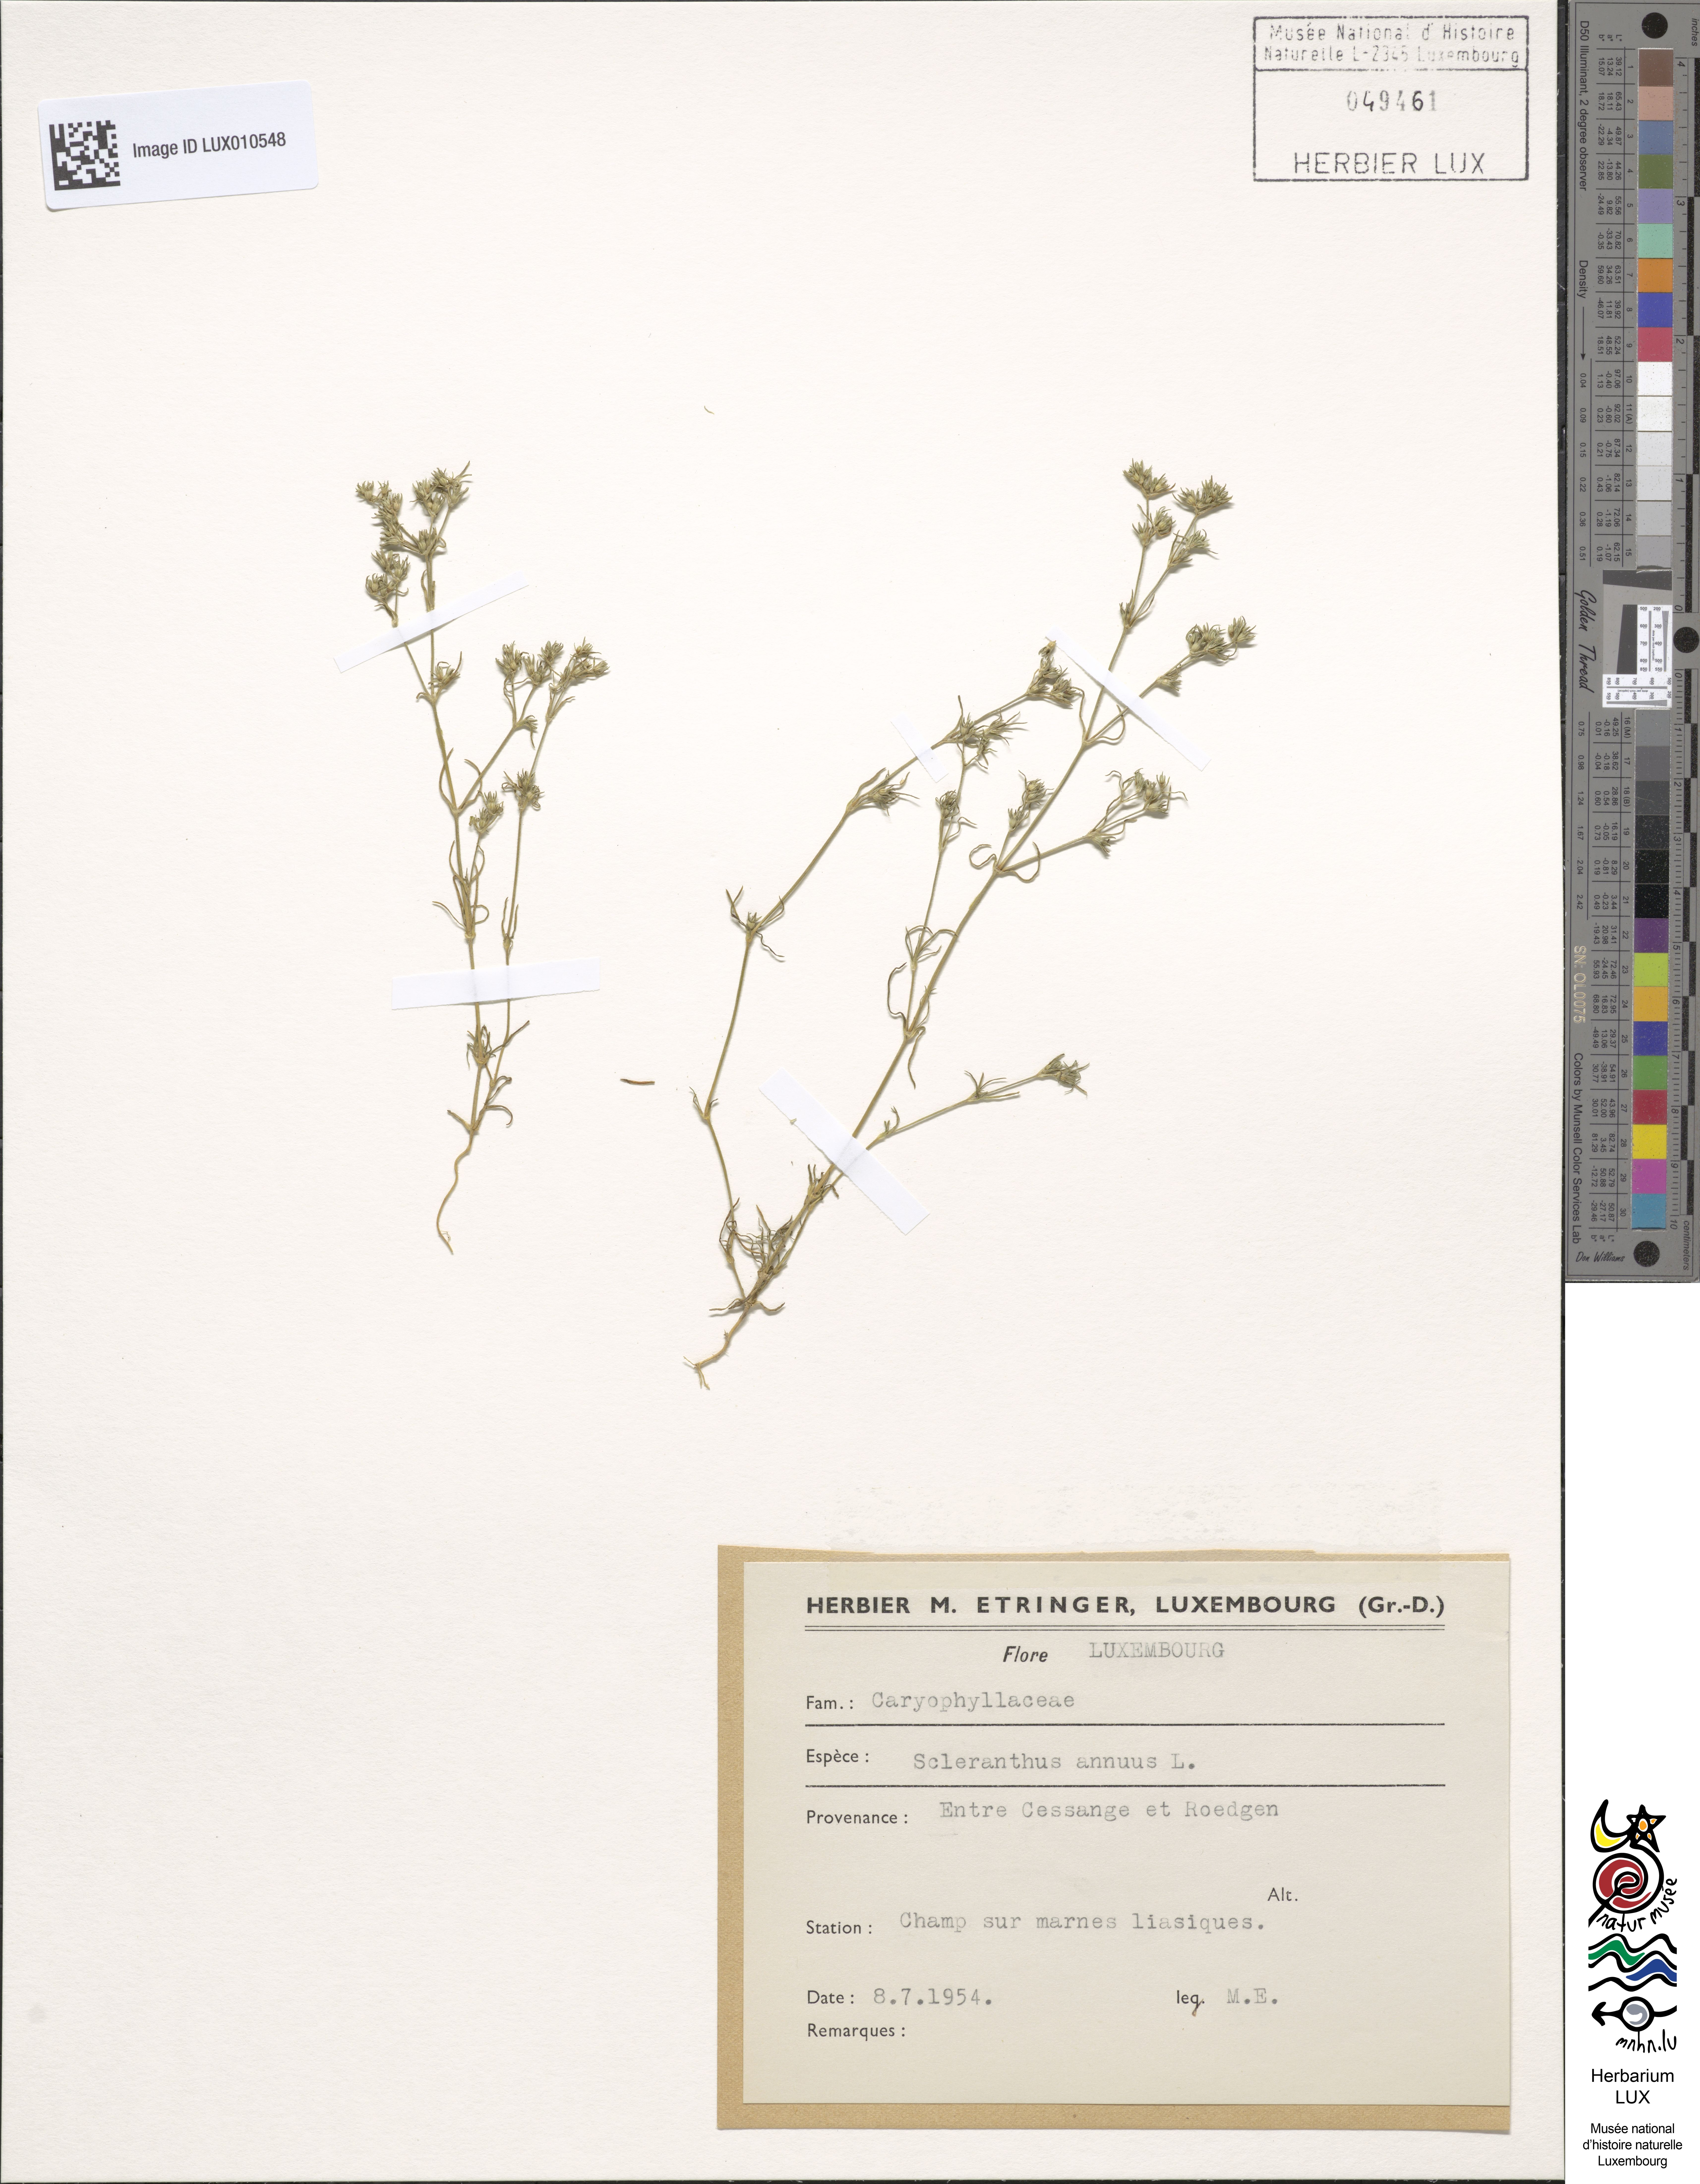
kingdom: Plantae
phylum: Tracheophyta
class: Magnoliopsida
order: Caryophyllales
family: Caryophyllaceae
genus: Scleranthus
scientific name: Scleranthus annuus
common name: Annual knawel
